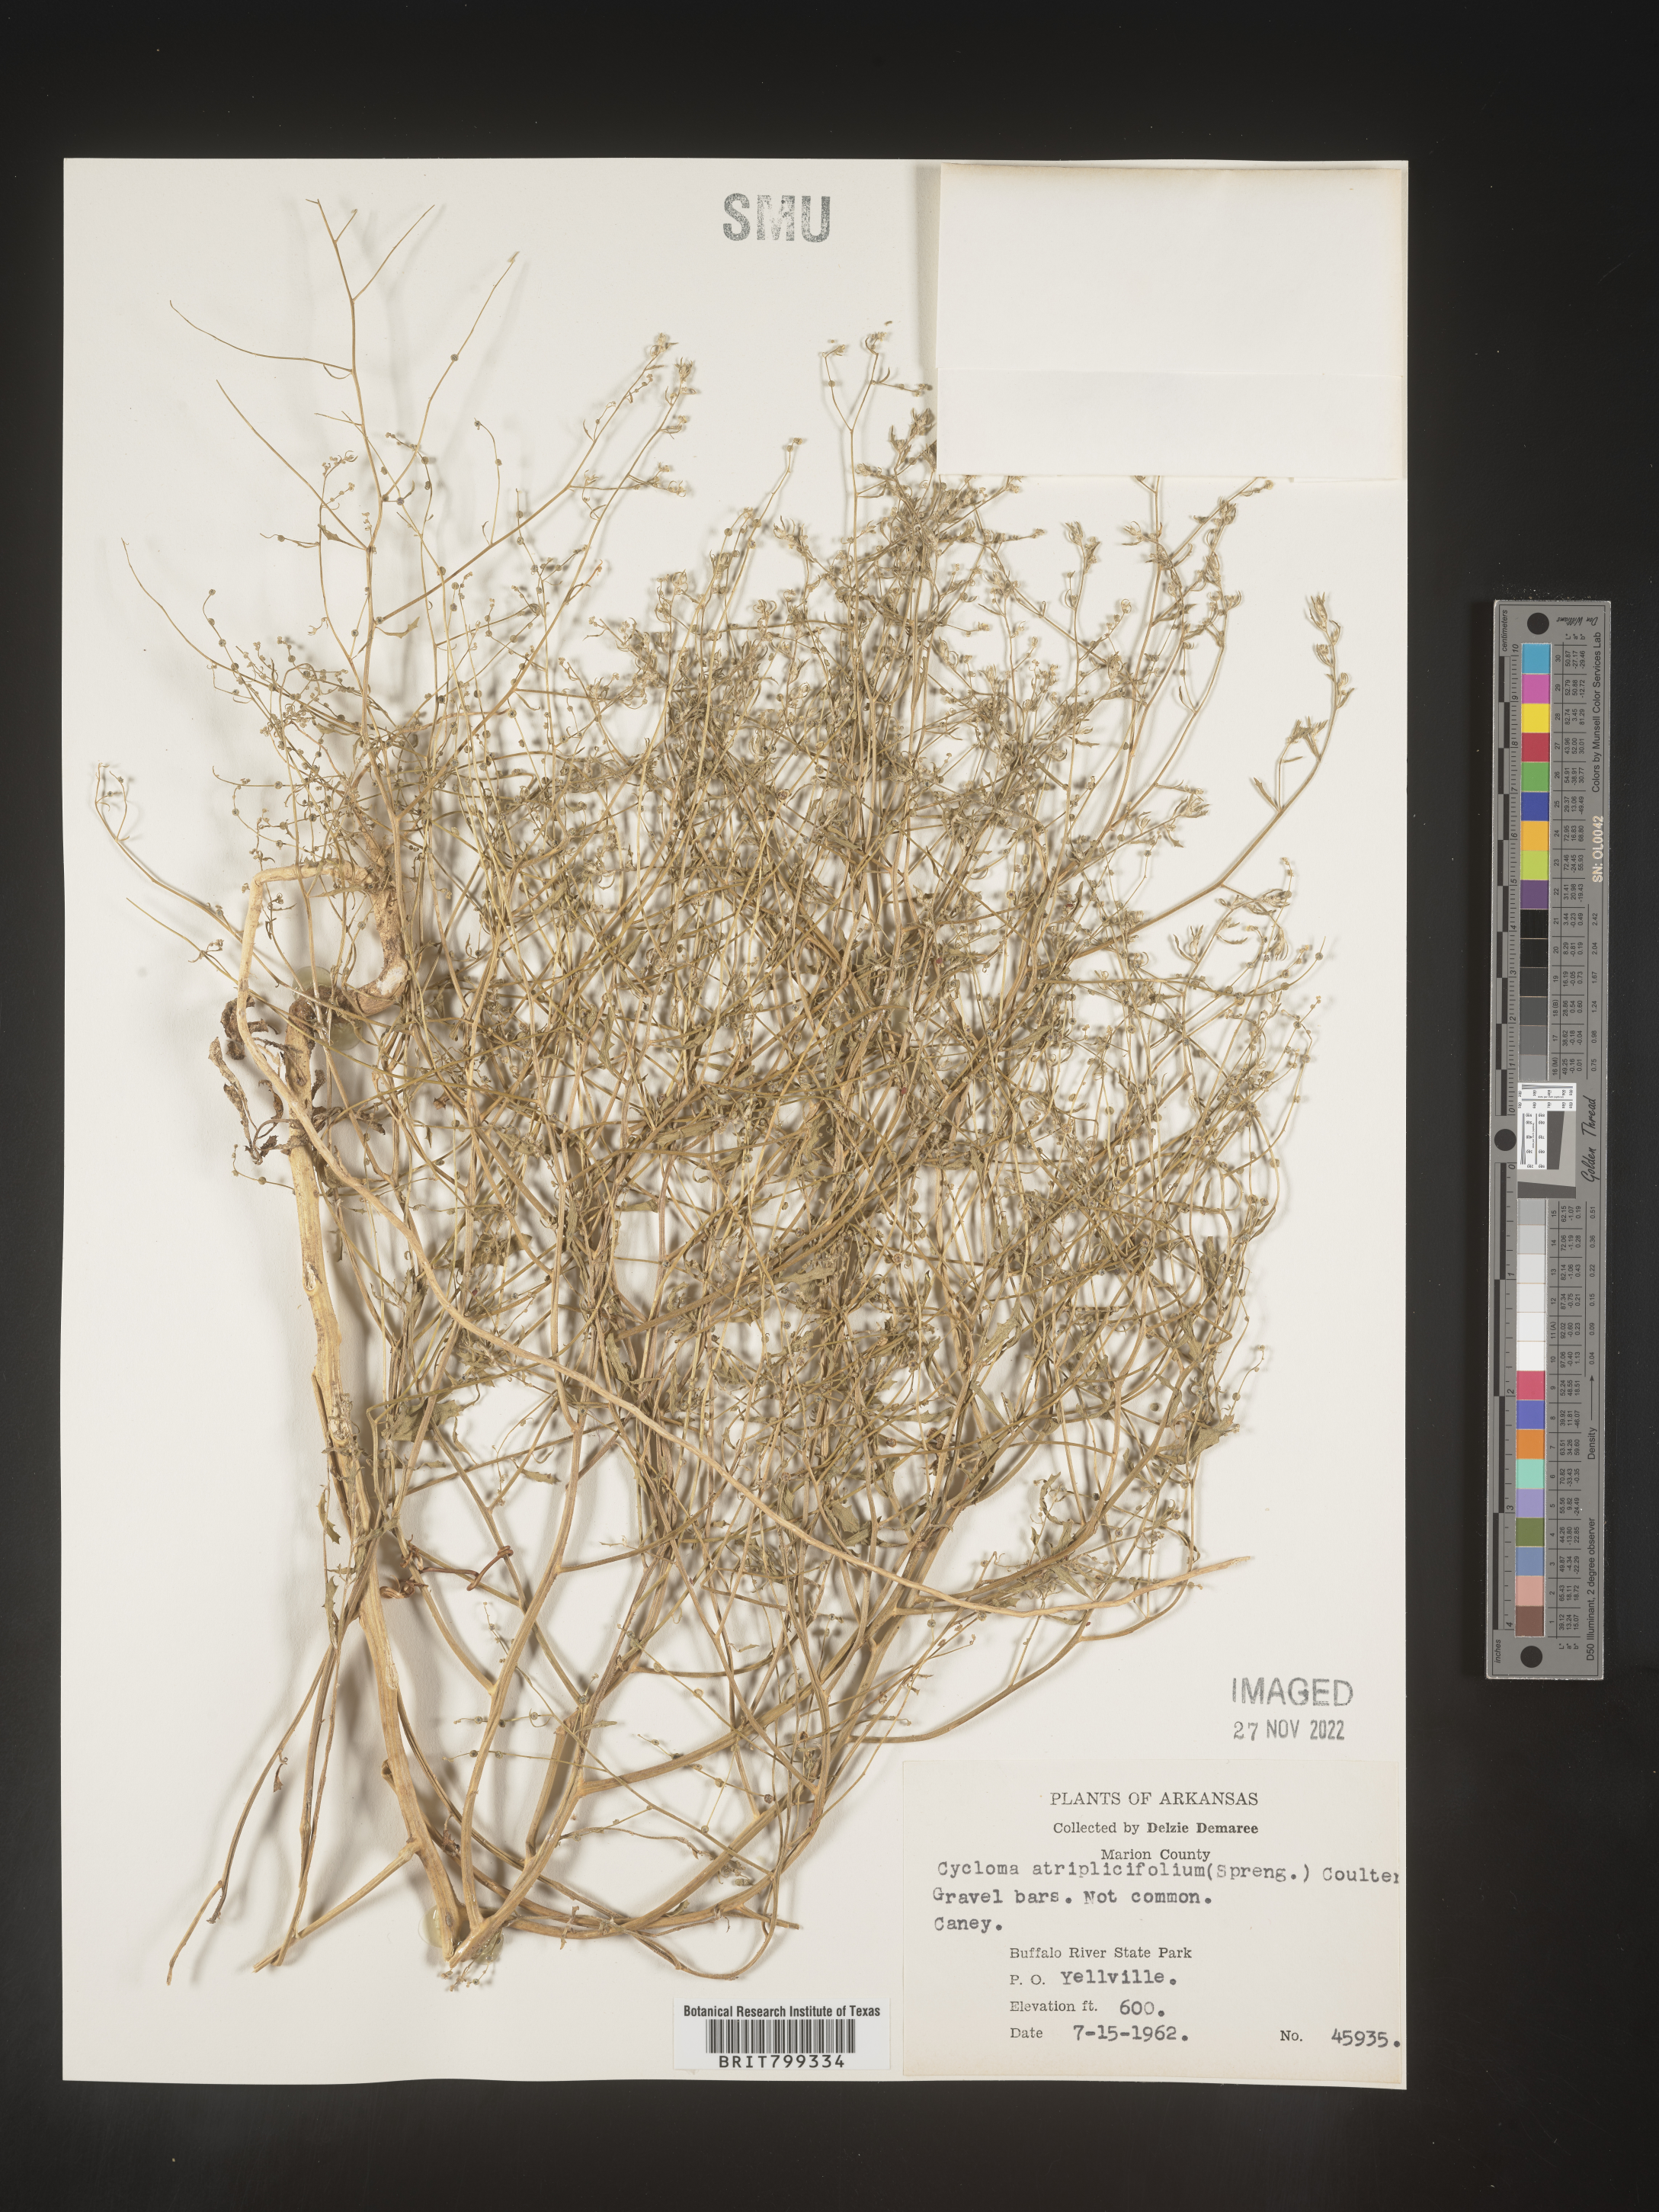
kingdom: Plantae
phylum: Tracheophyta
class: Magnoliopsida
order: Caryophyllales
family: Amaranthaceae
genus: Dysphania
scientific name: Dysphania atriplicifolia
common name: Plains tumbleweed
